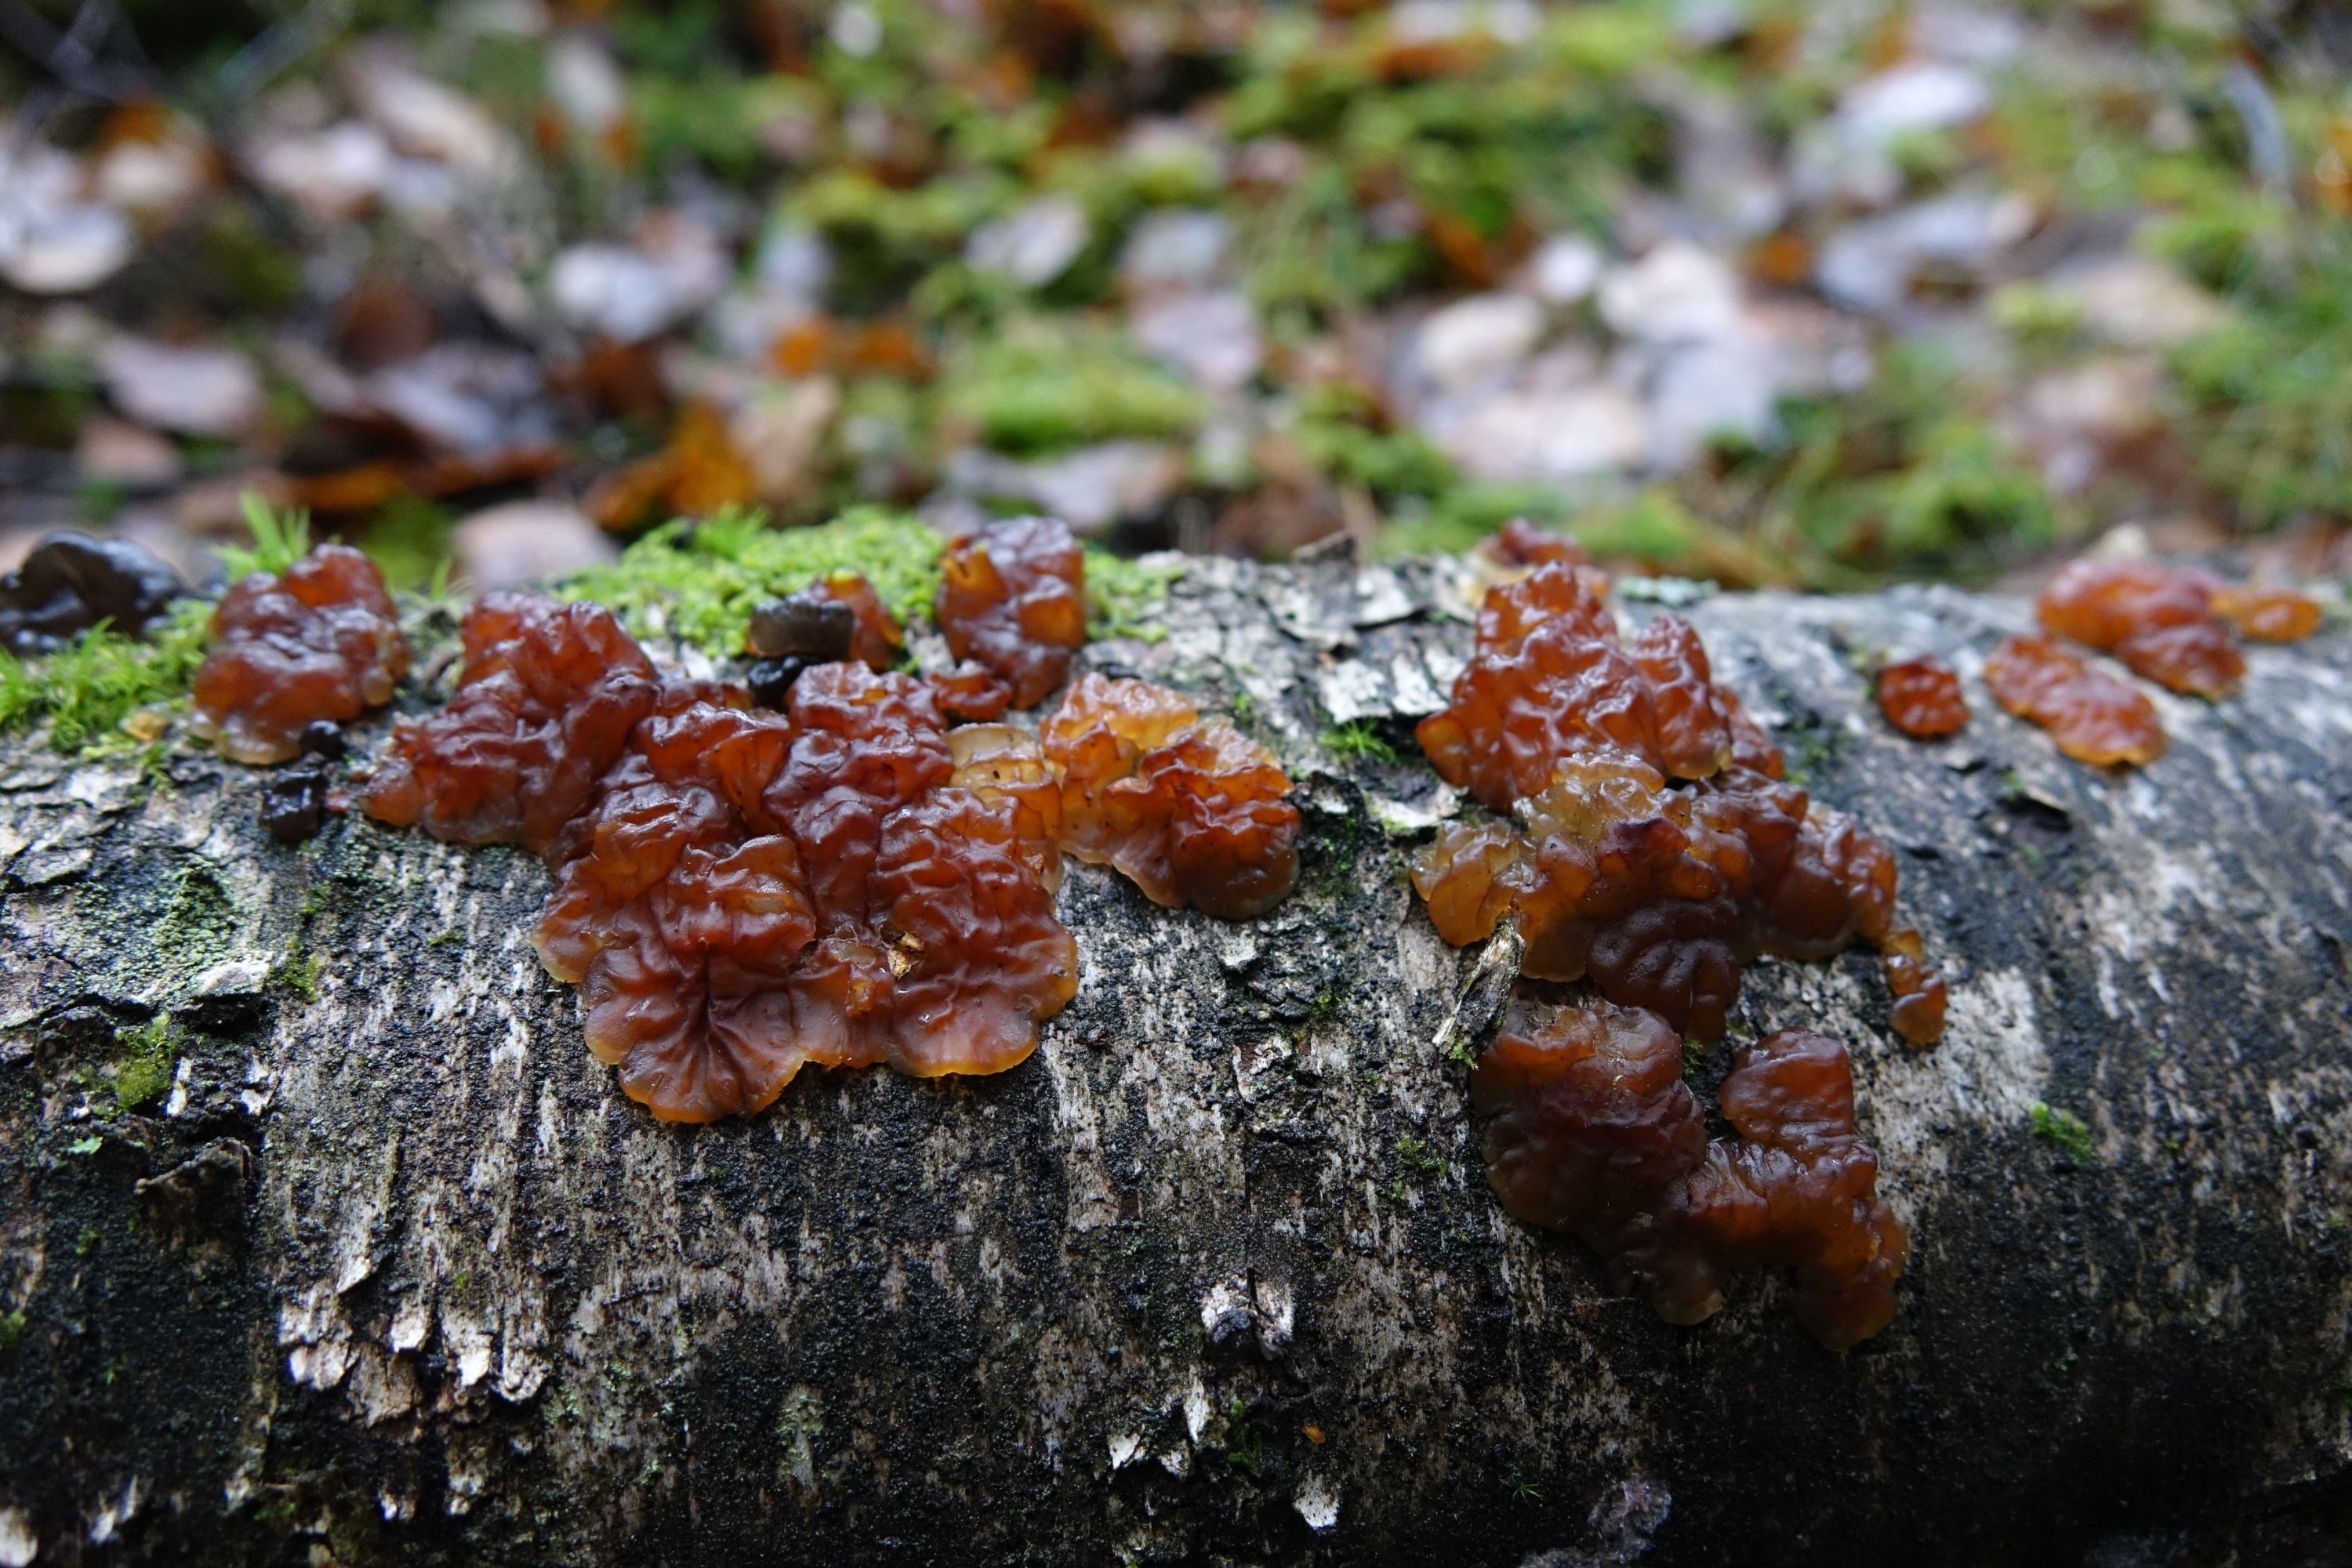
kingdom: Fungi
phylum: Basidiomycota
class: Agaricomycetes
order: Auriculariales
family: Auriculariaceae
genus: Exidia
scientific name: Exidia cartilaginea
